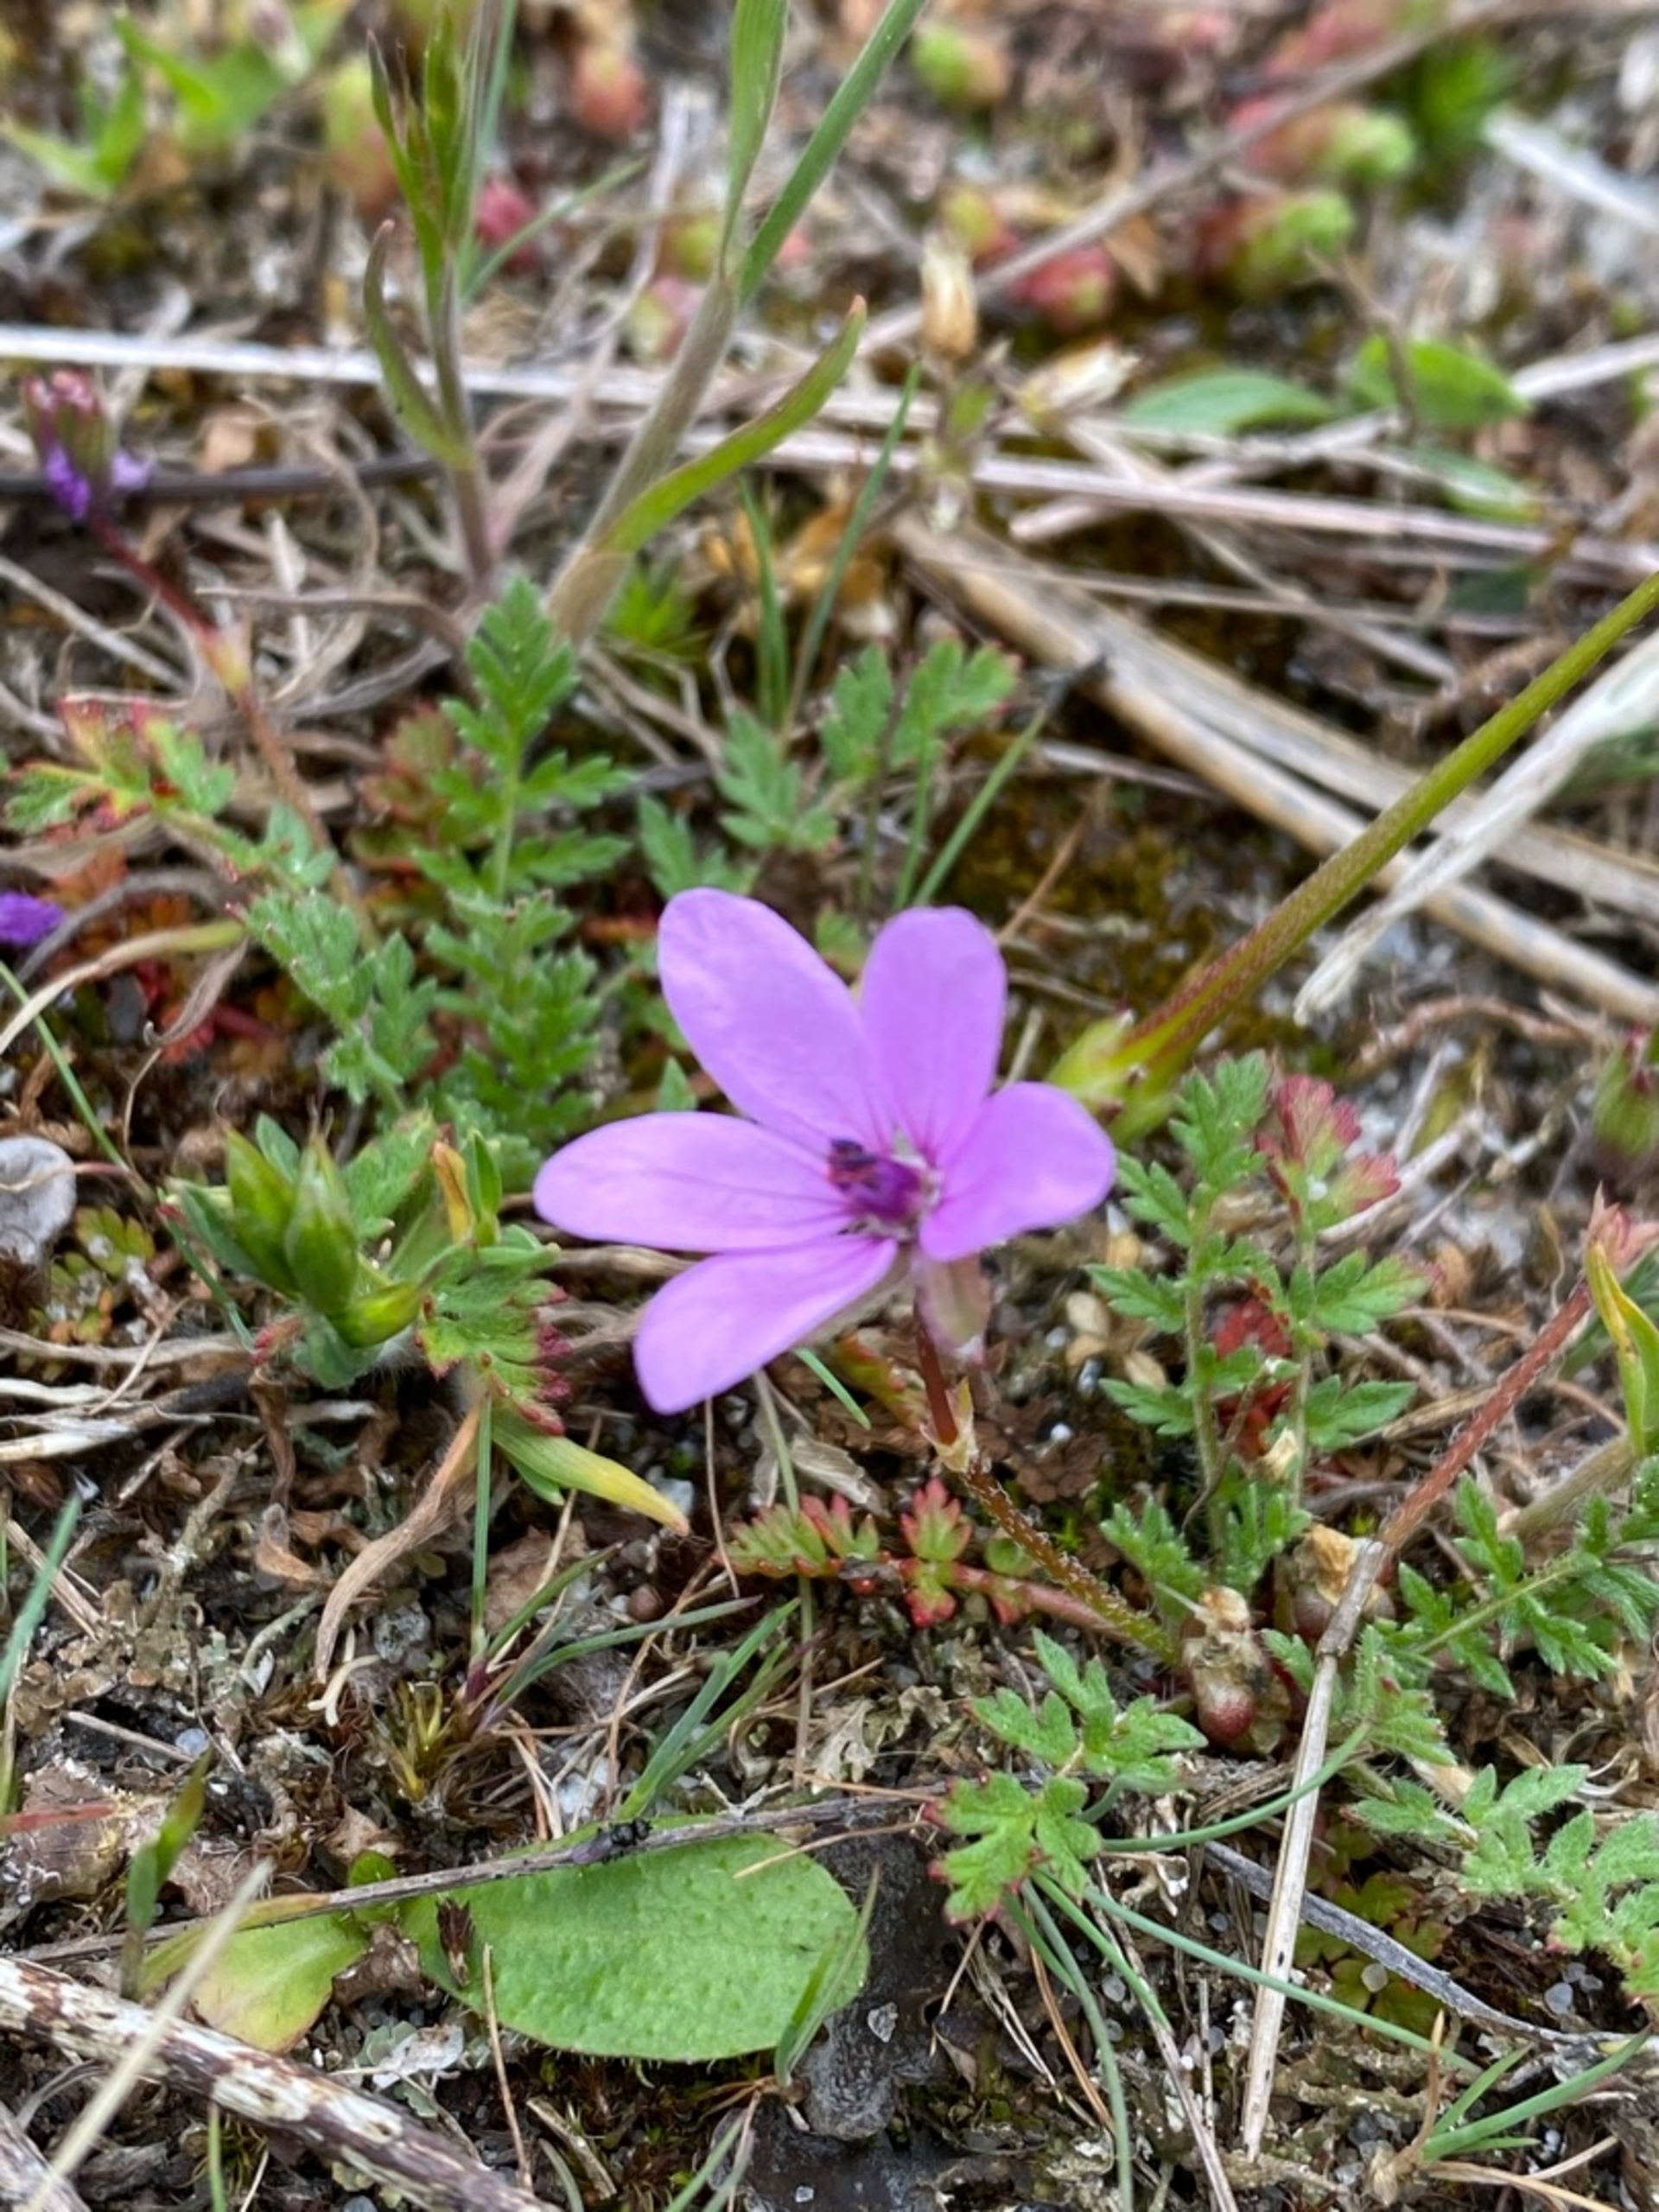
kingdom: Plantae
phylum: Tracheophyta
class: Magnoliopsida
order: Geraniales
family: Geraniaceae
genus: Erodium
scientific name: Erodium cicutarium
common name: Hejrenæb
